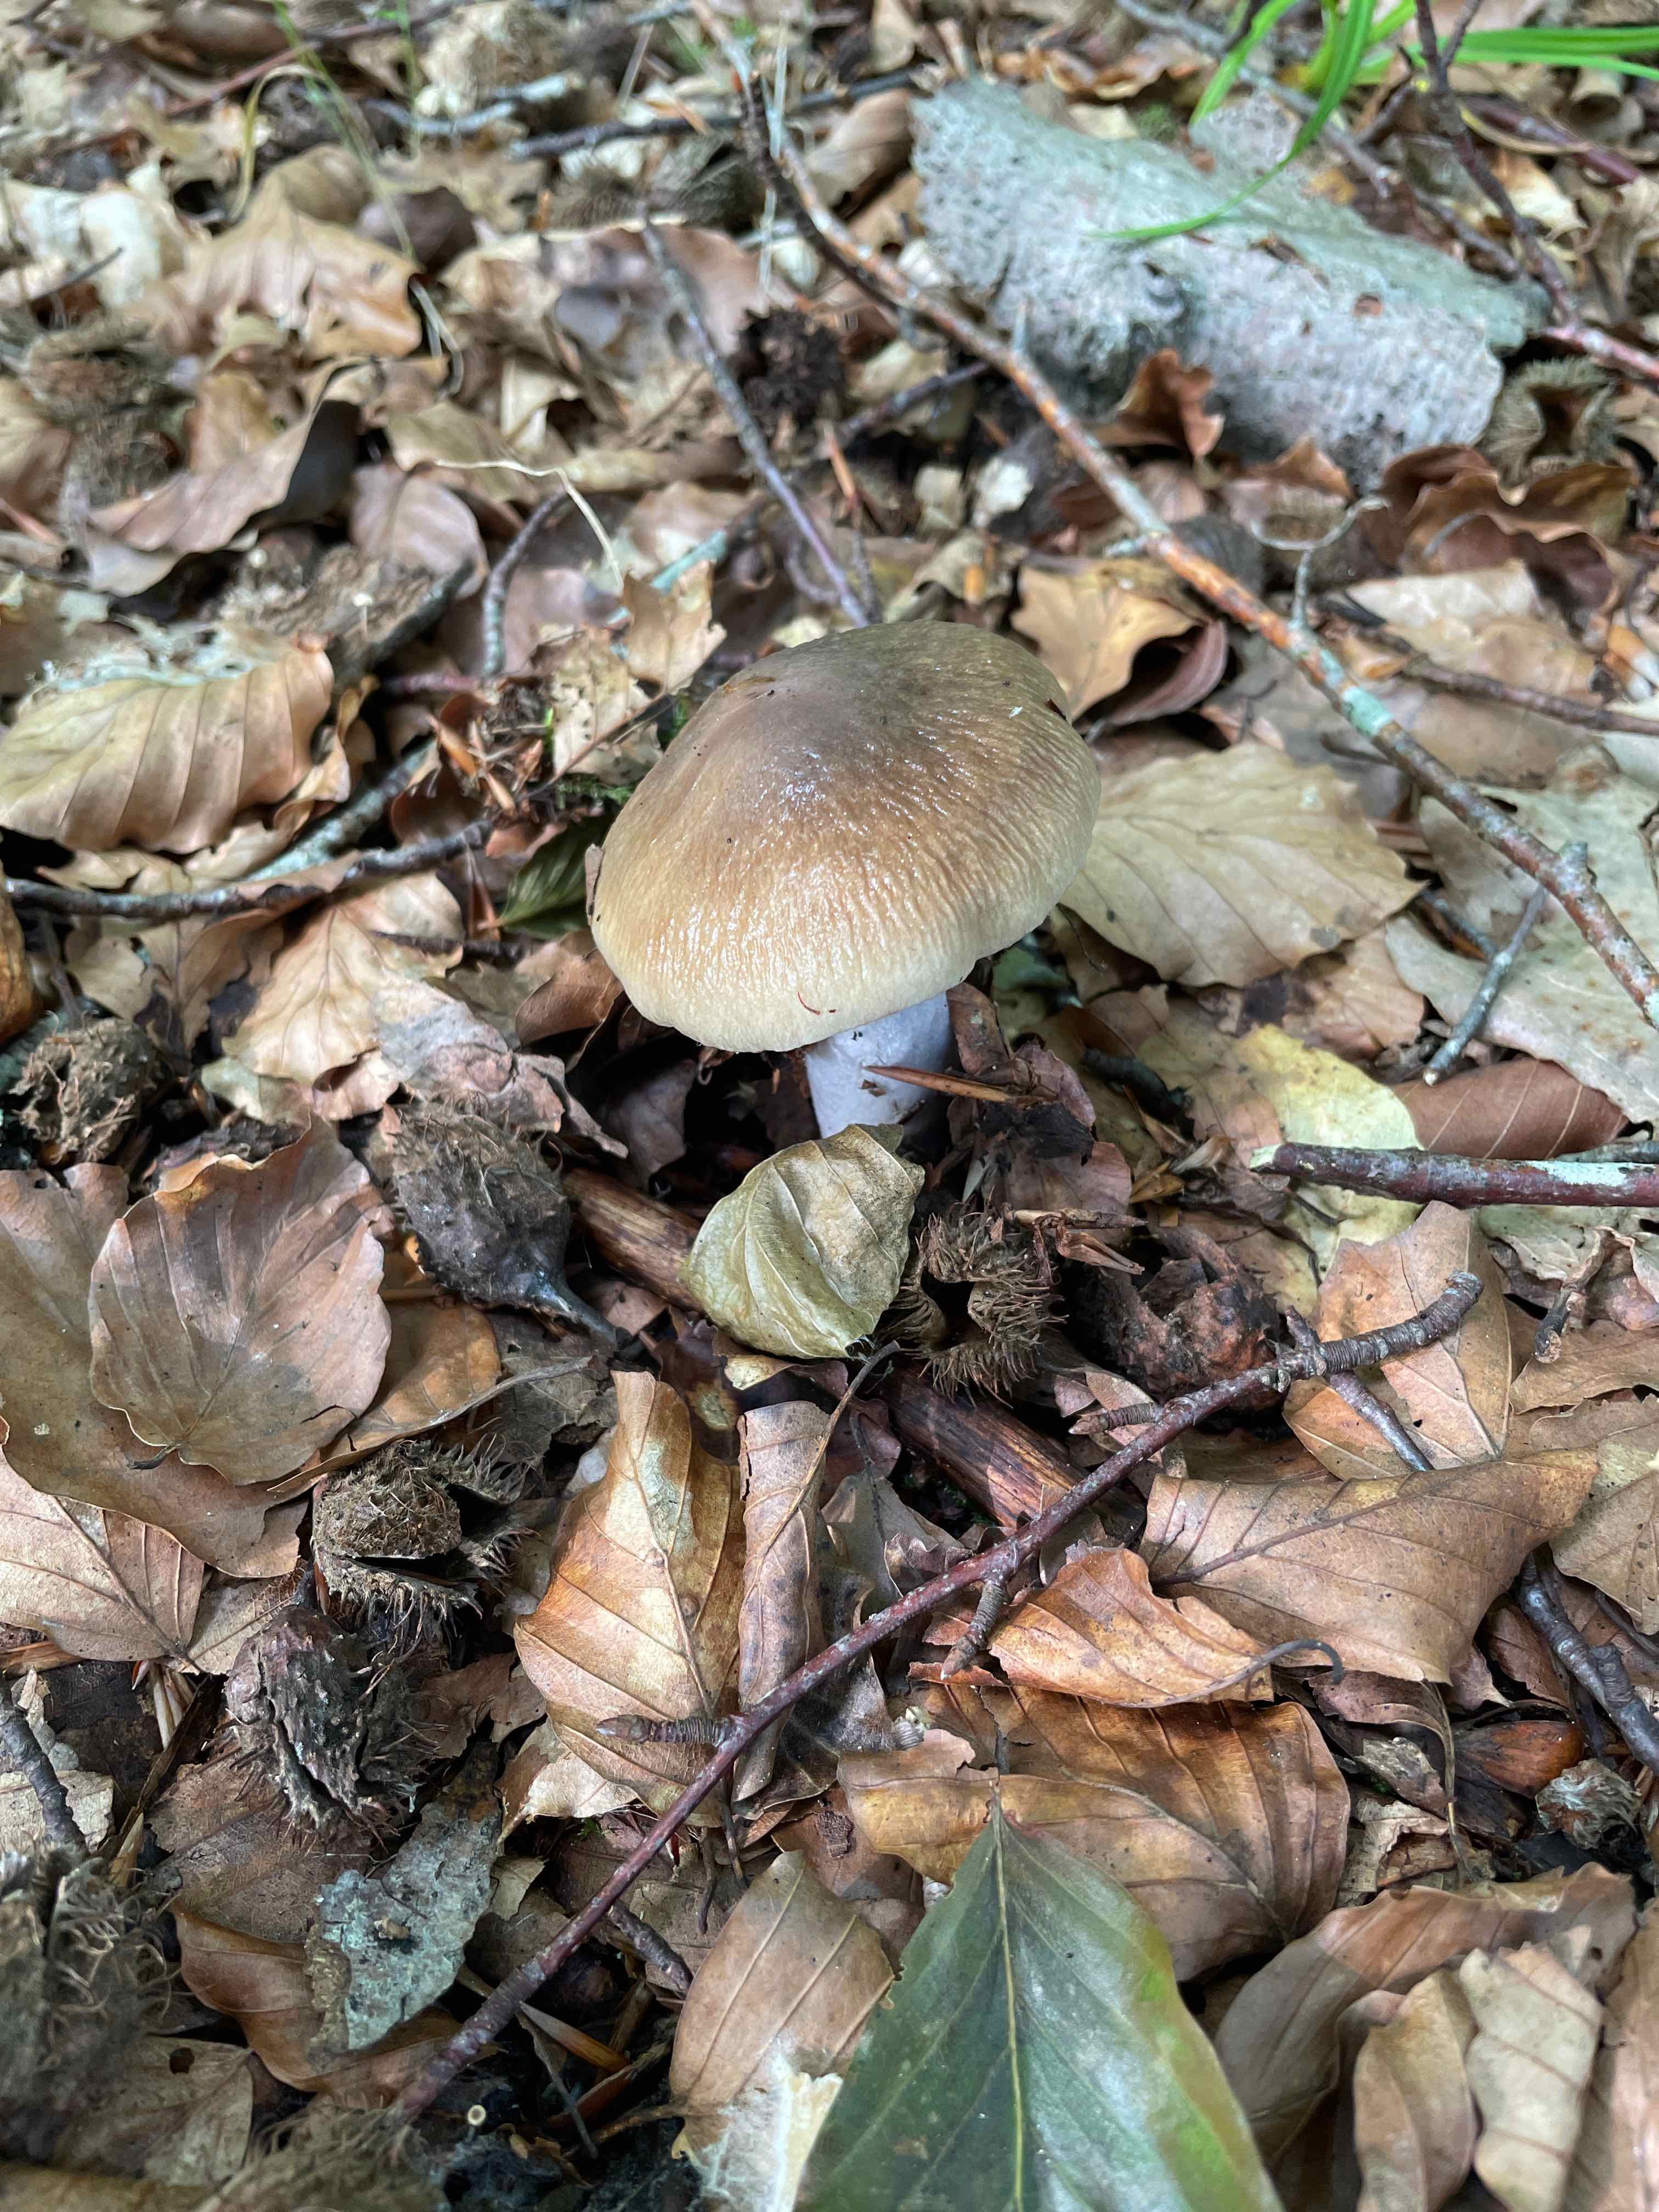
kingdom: Fungi
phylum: Basidiomycota
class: Agaricomycetes
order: Agaricales
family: Cortinariaceae
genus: Cortinarius
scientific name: Cortinarius elatior
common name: høj slørhat
